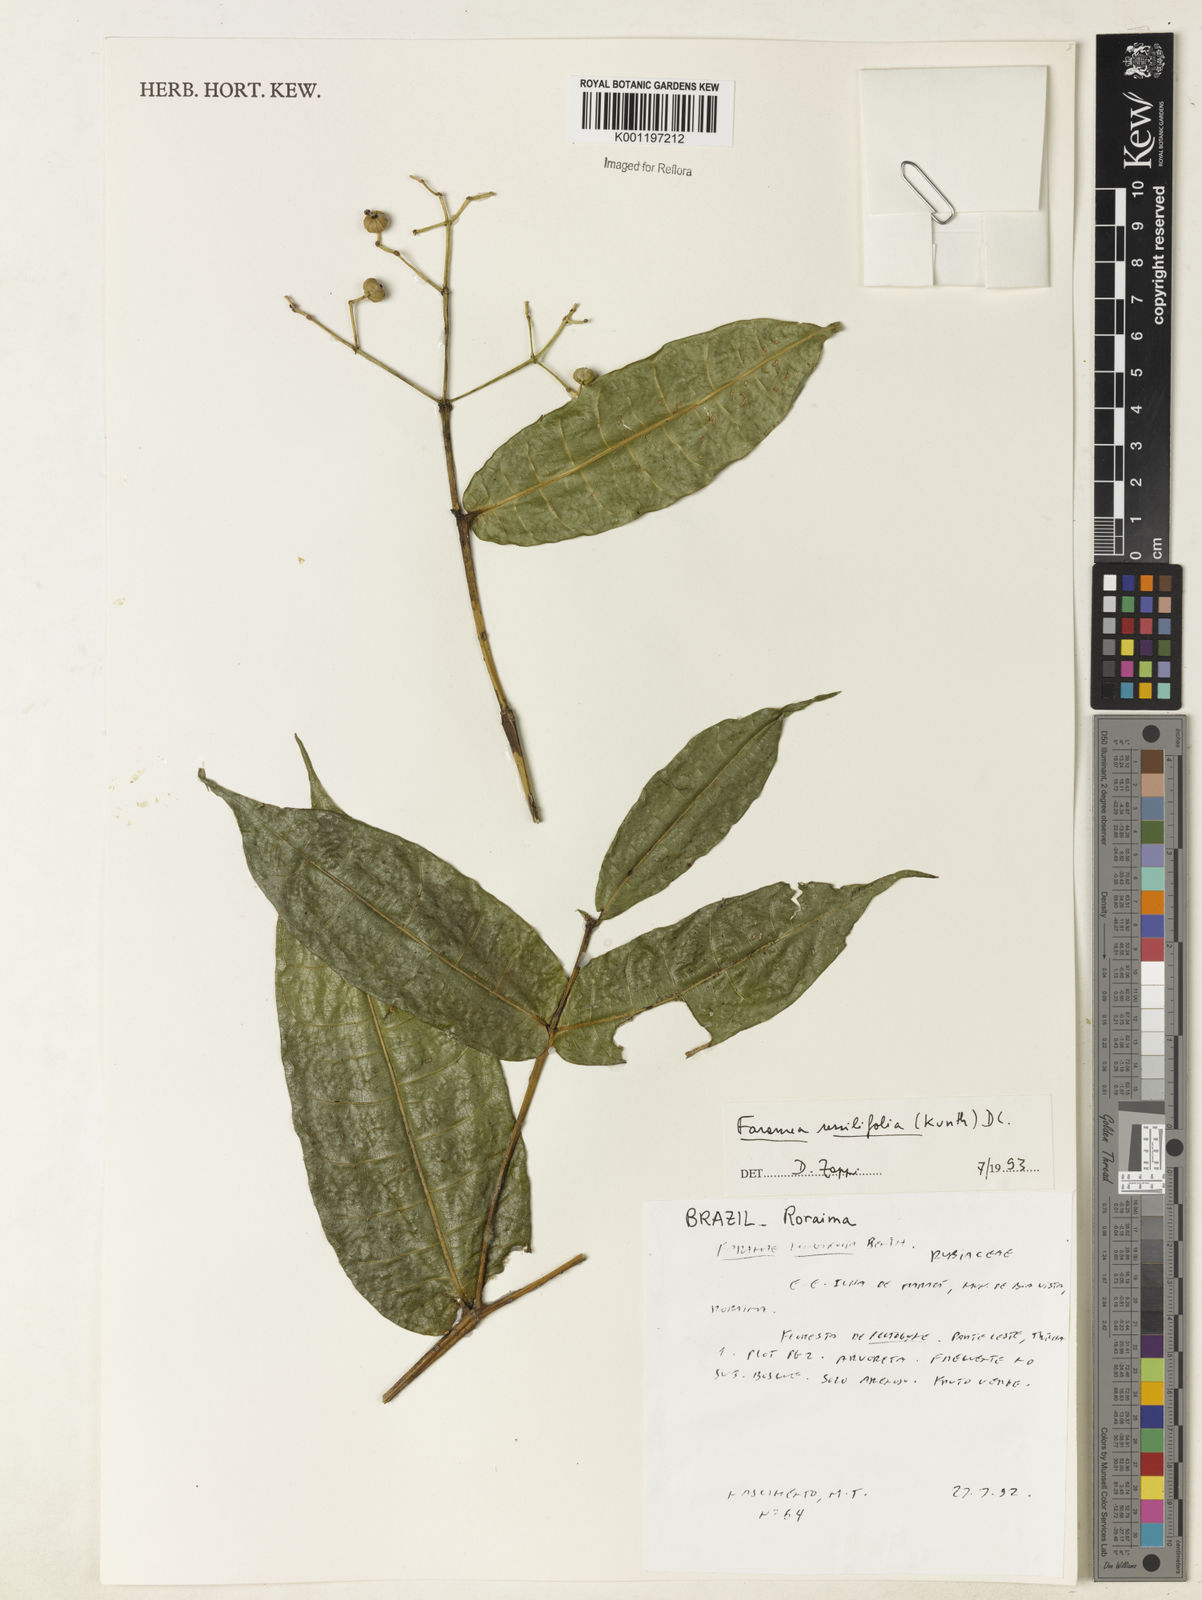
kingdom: Plantae
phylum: Tracheophyta
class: Magnoliopsida
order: Gentianales
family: Rubiaceae
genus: Faramea
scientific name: Faramea sessilifolia
